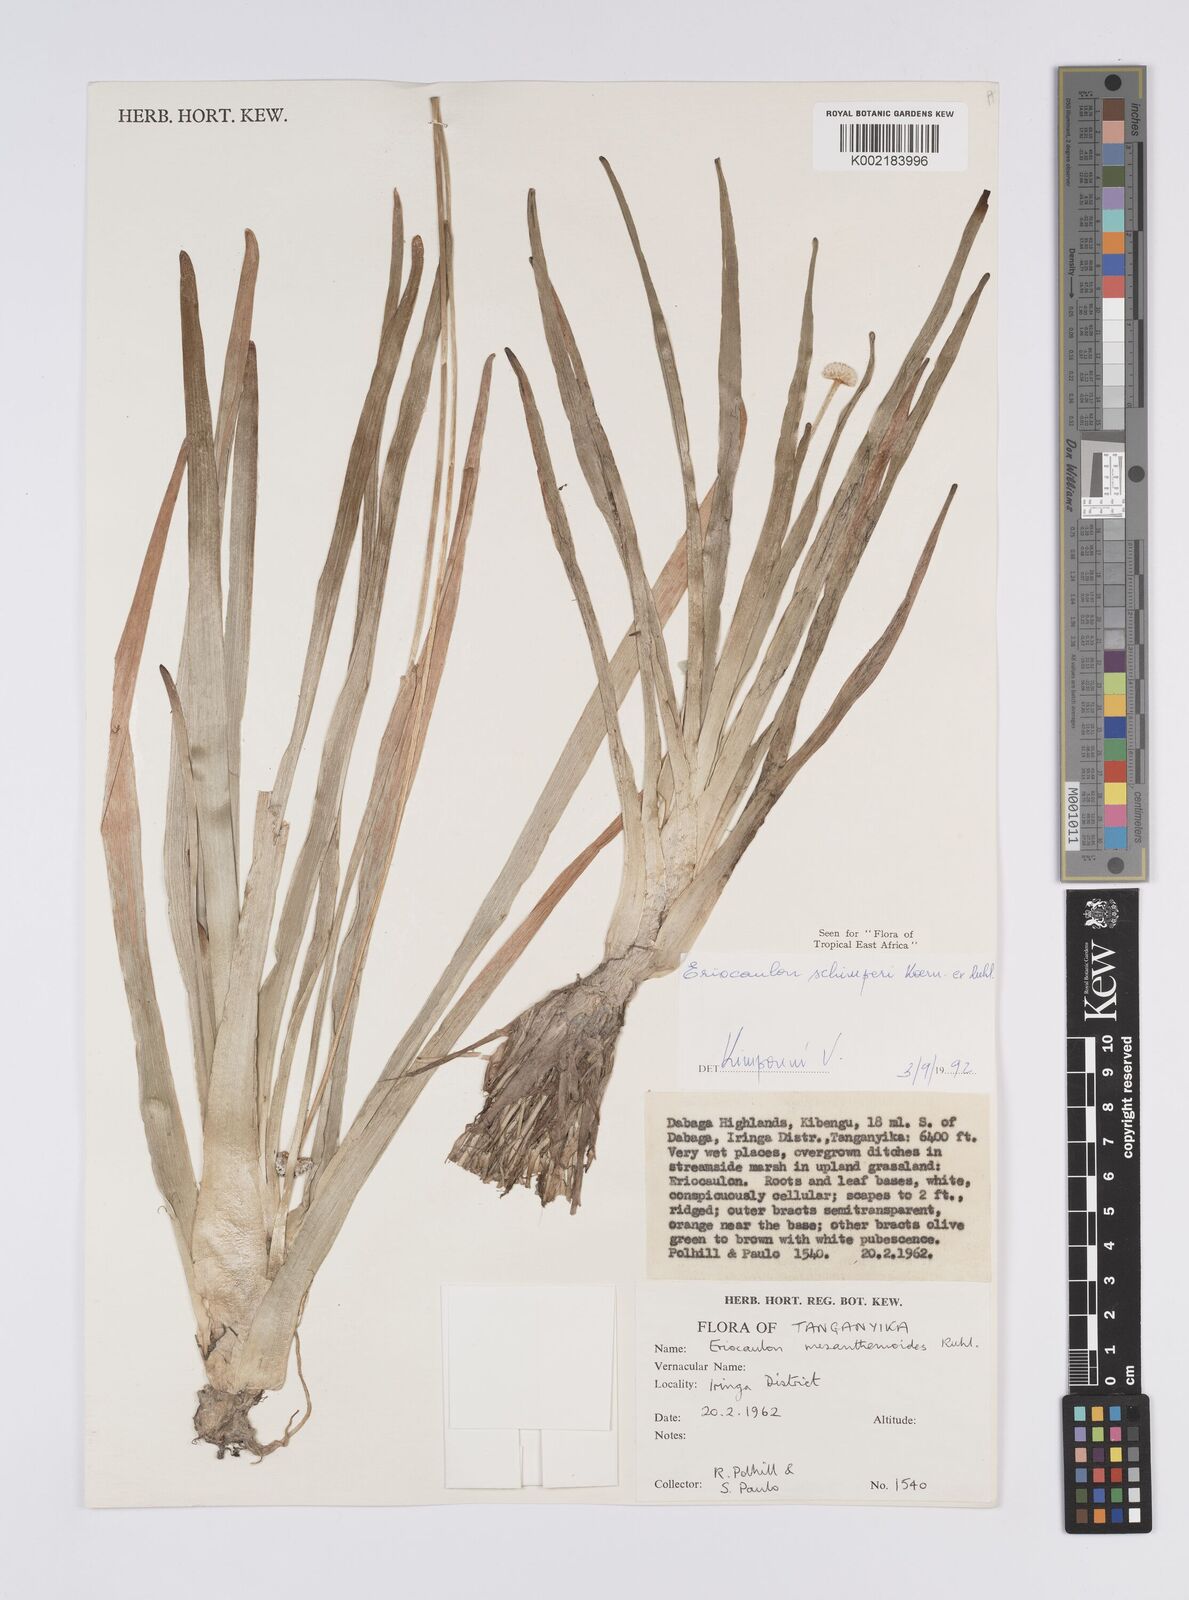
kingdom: Plantae
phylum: Tracheophyta
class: Liliopsida
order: Poales
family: Eriocaulaceae
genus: Eriocaulon
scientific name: Eriocaulon schimperi
